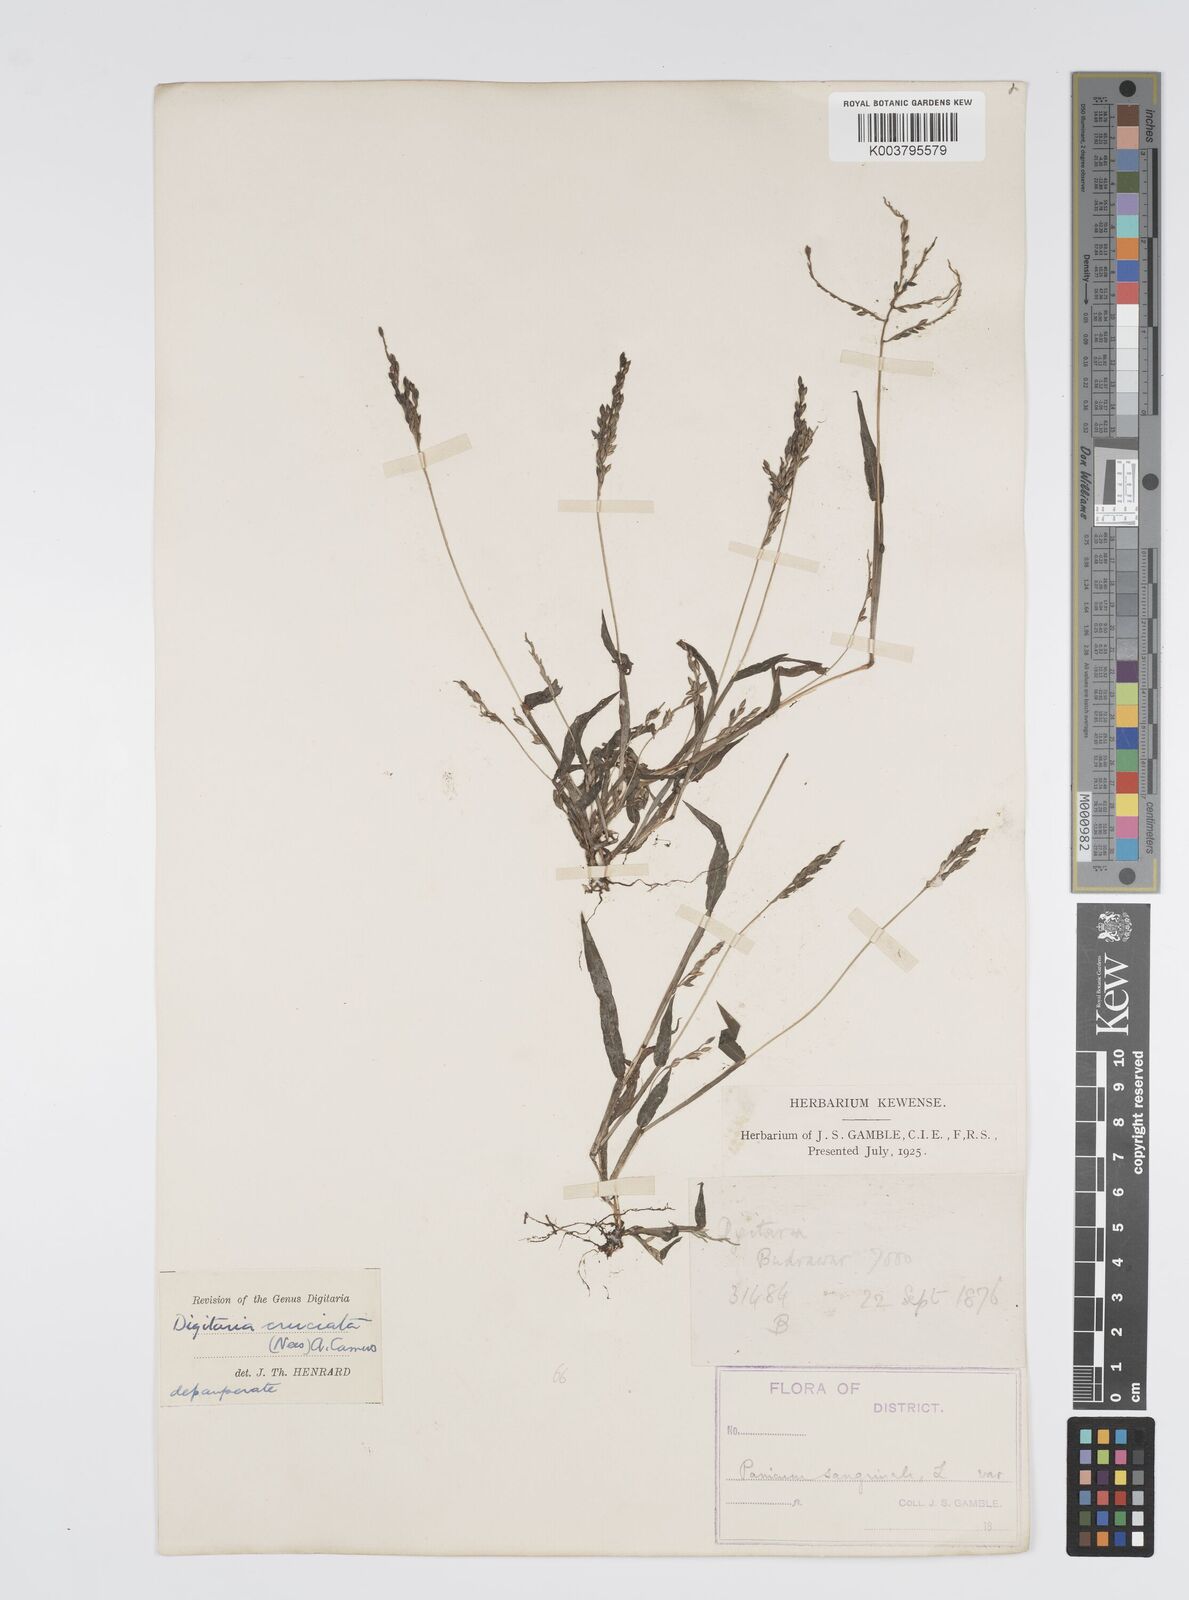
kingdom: Plantae
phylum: Tracheophyta
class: Liliopsida
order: Poales
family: Poaceae
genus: Digitaria
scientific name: Digitaria sanguinalis
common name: Hairy crabgrass
